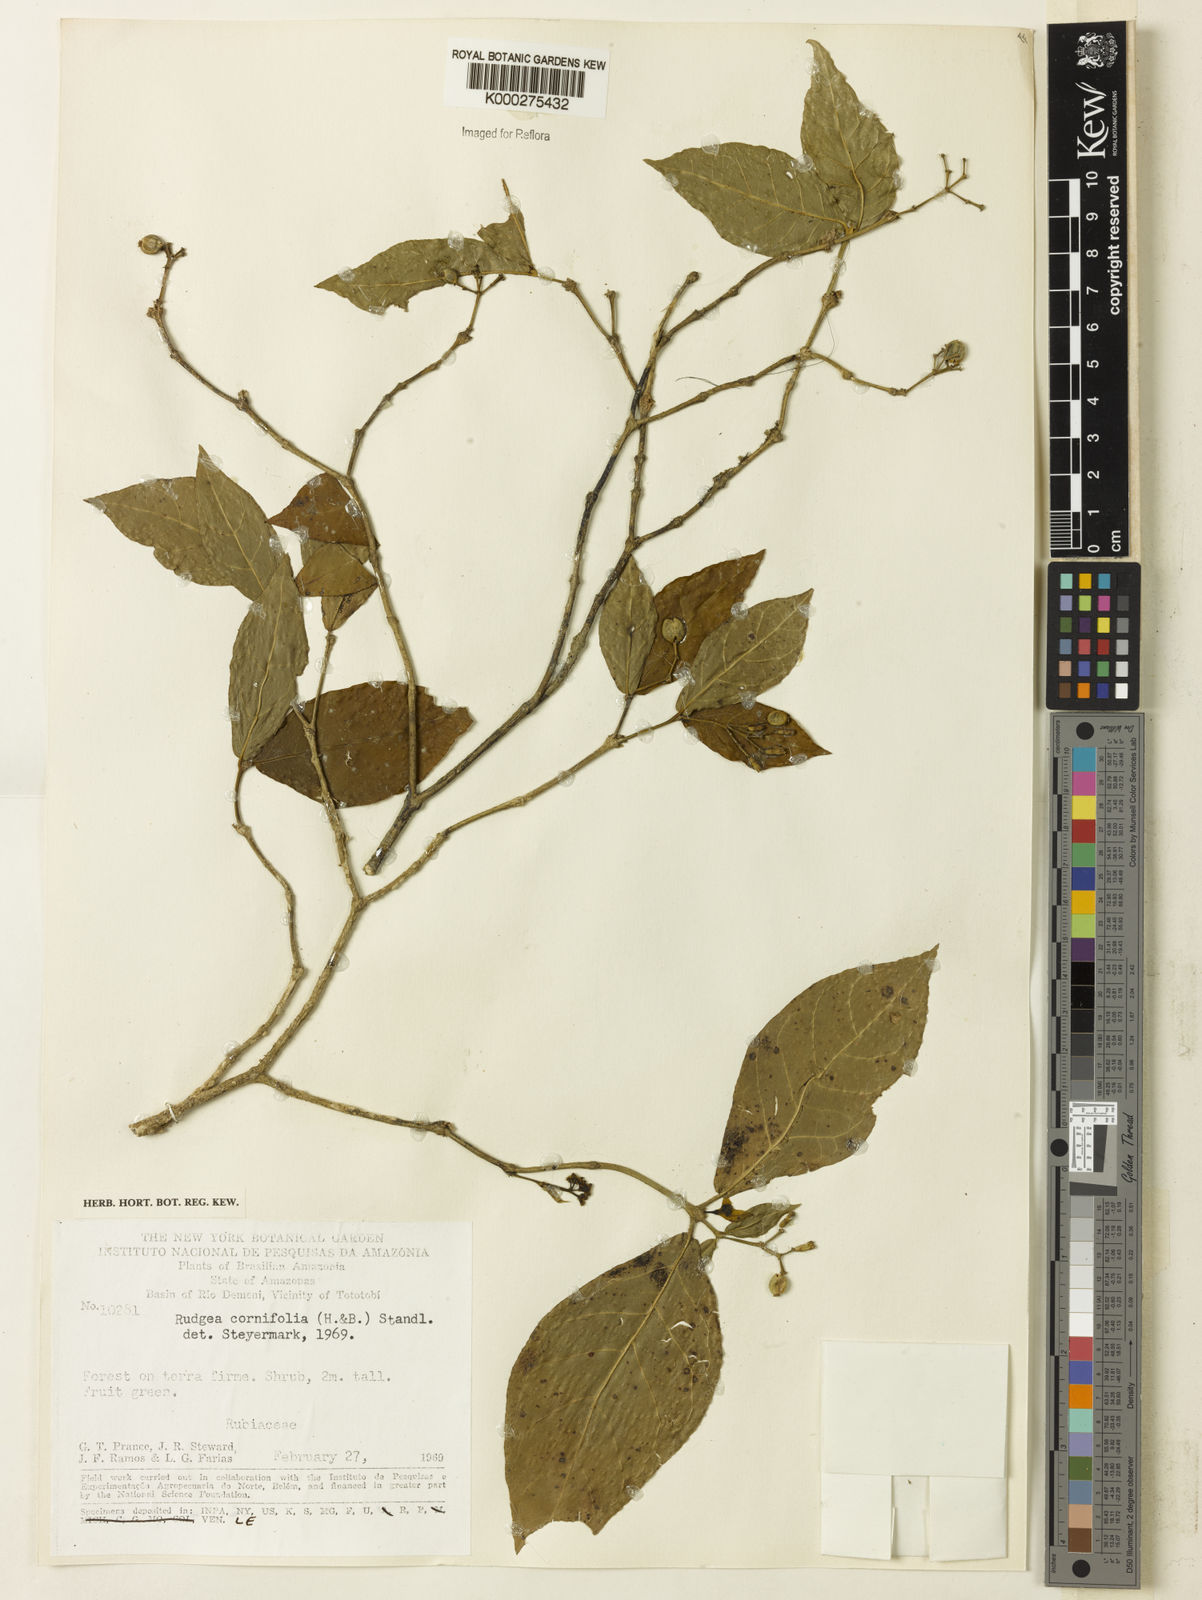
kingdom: Plantae
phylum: Tracheophyta
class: Magnoliopsida
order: Gentianales
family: Rubiaceae
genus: Rudgea
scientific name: Rudgea cornifolia
